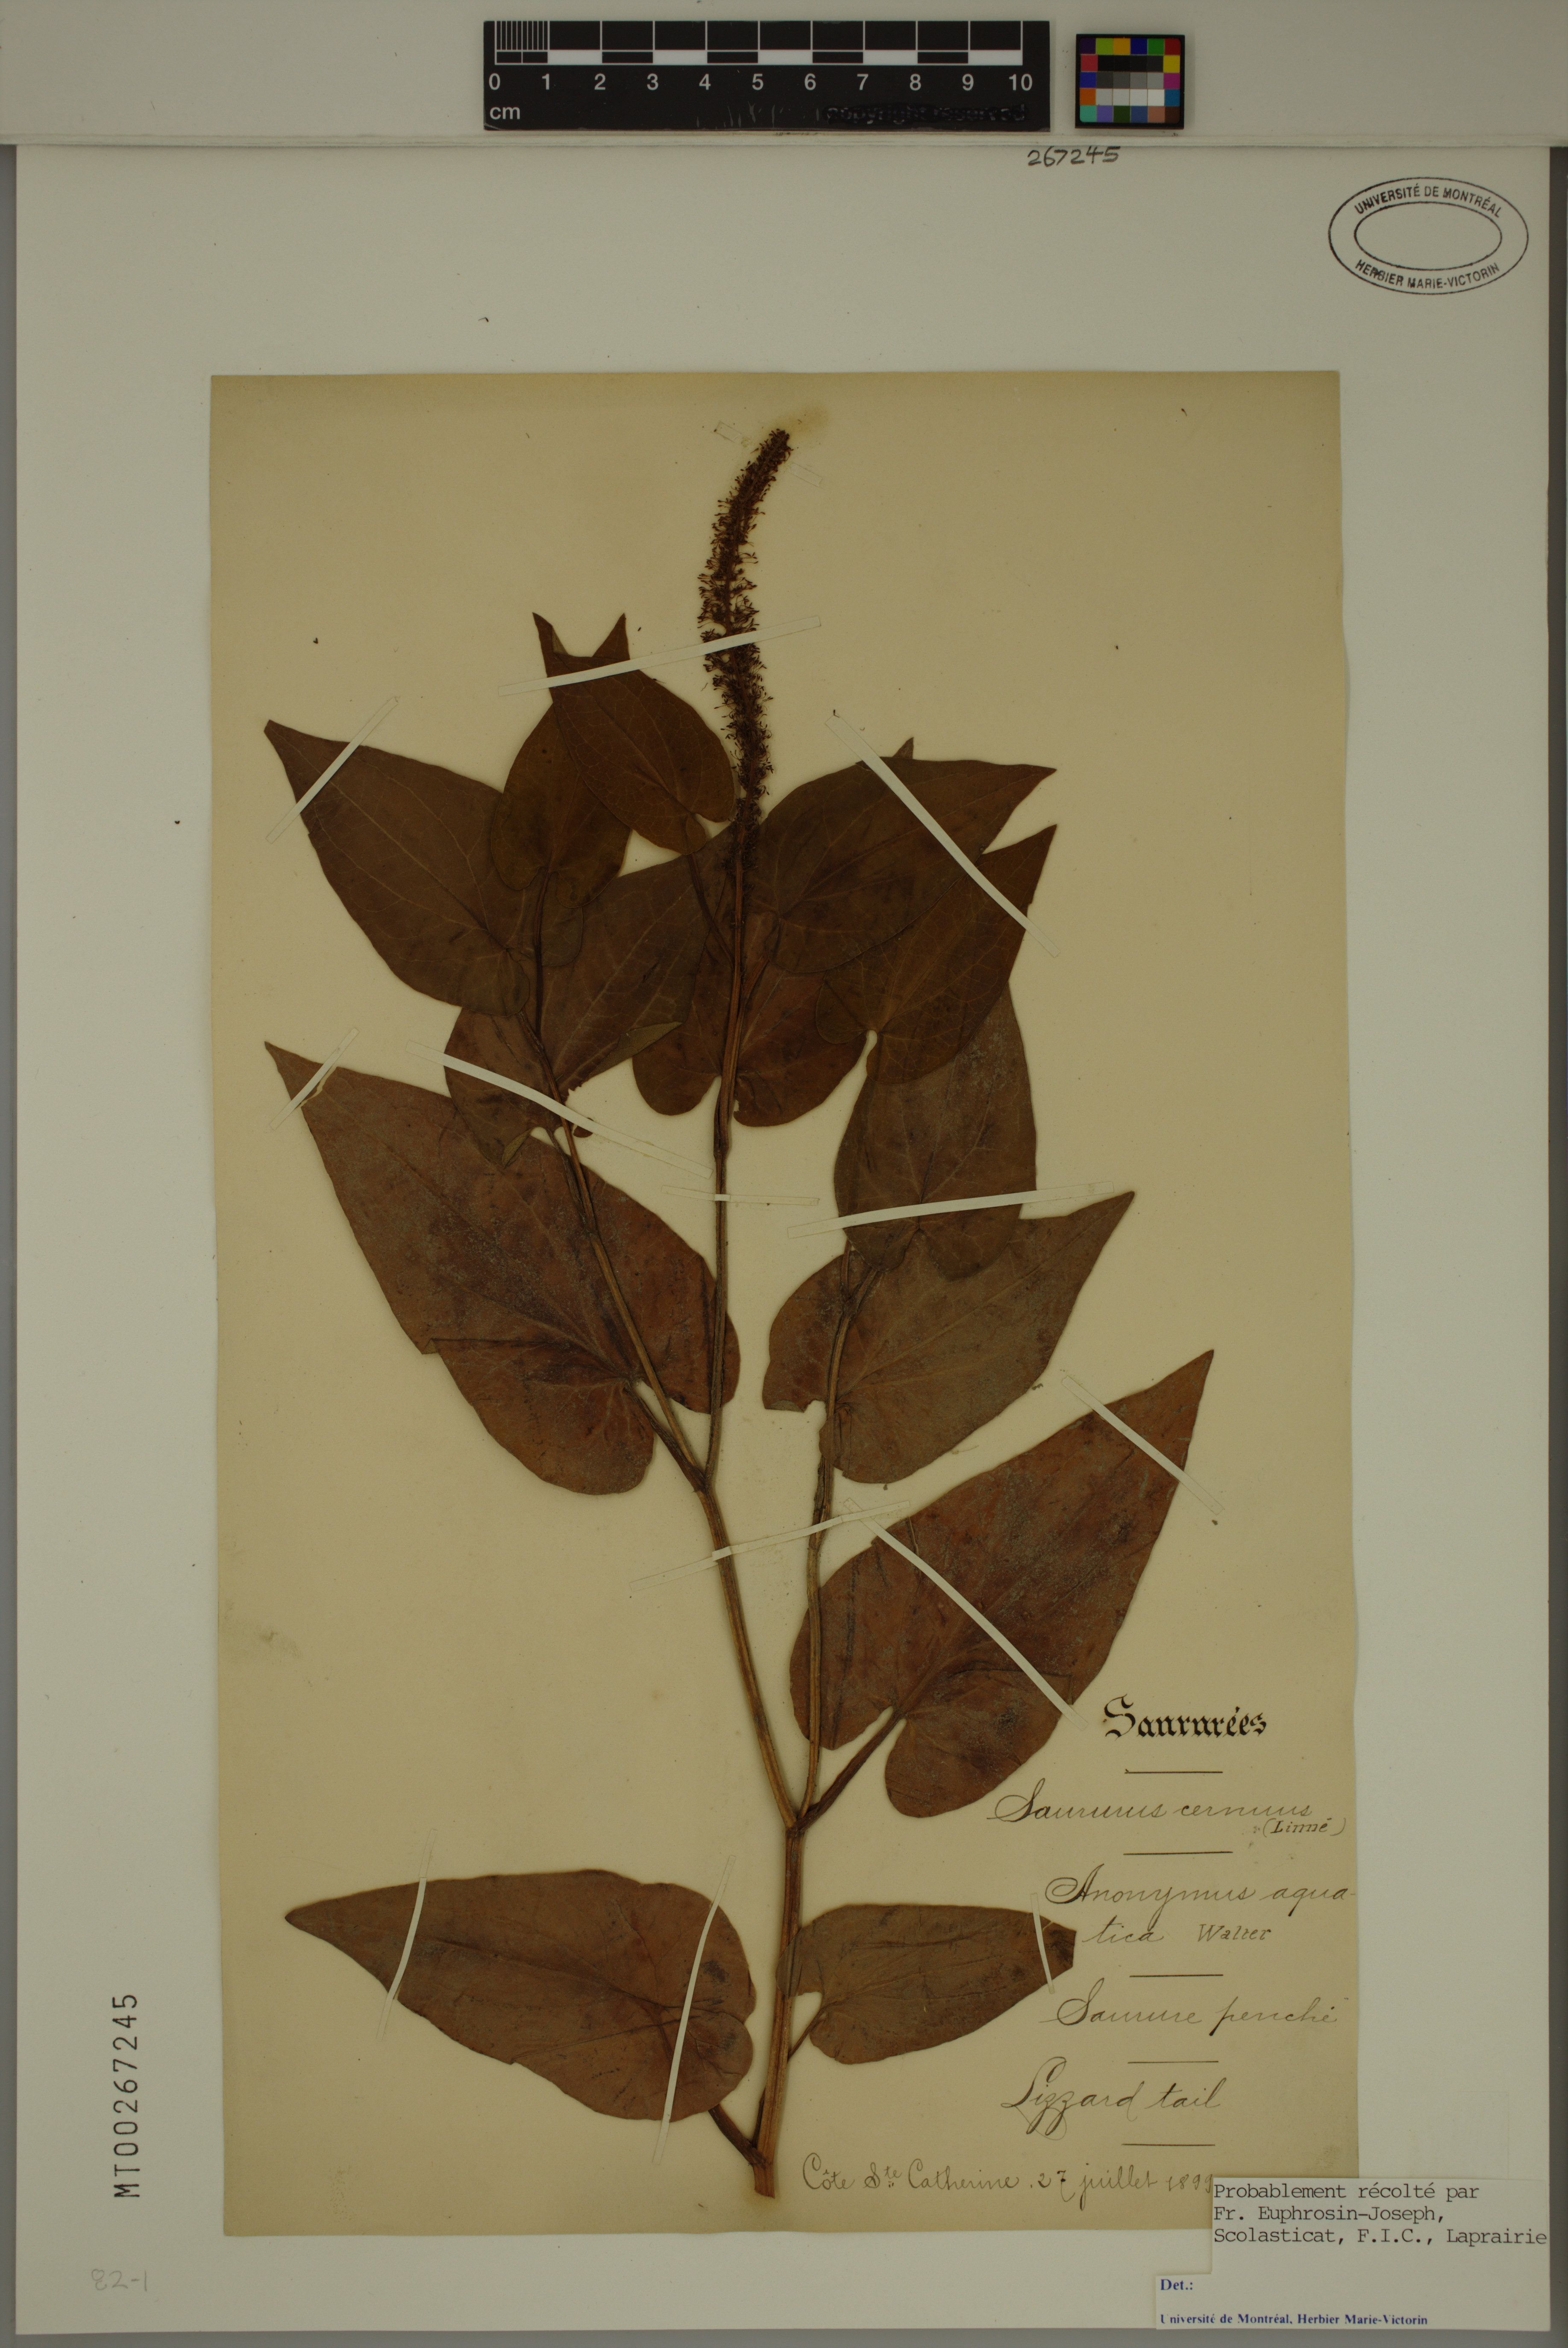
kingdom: Plantae
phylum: Tracheophyta
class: Magnoliopsida
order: Piperales
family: Saururaceae
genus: Saururus
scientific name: Saururus cernuus
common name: Lizard's-tail
